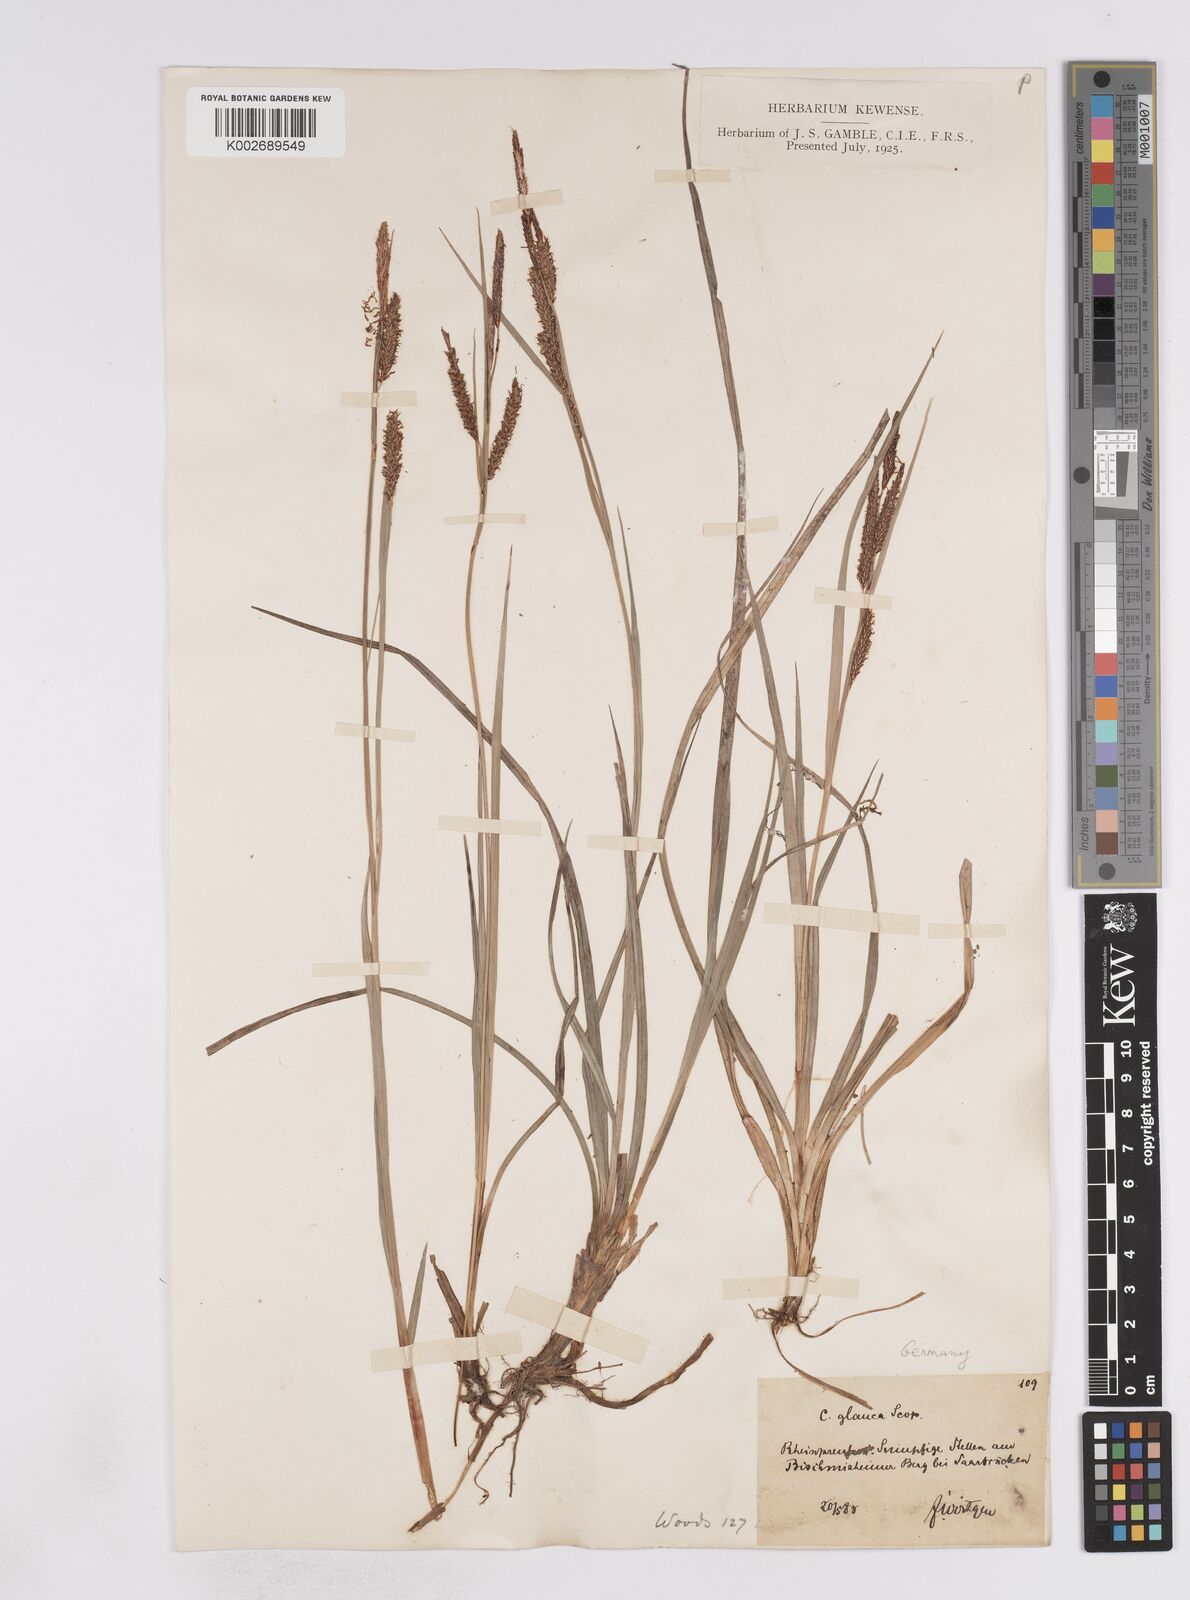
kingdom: Plantae
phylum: Tracheophyta
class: Liliopsida
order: Poales
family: Cyperaceae
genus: Carex
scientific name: Carex flacca
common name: Glaucous sedge
